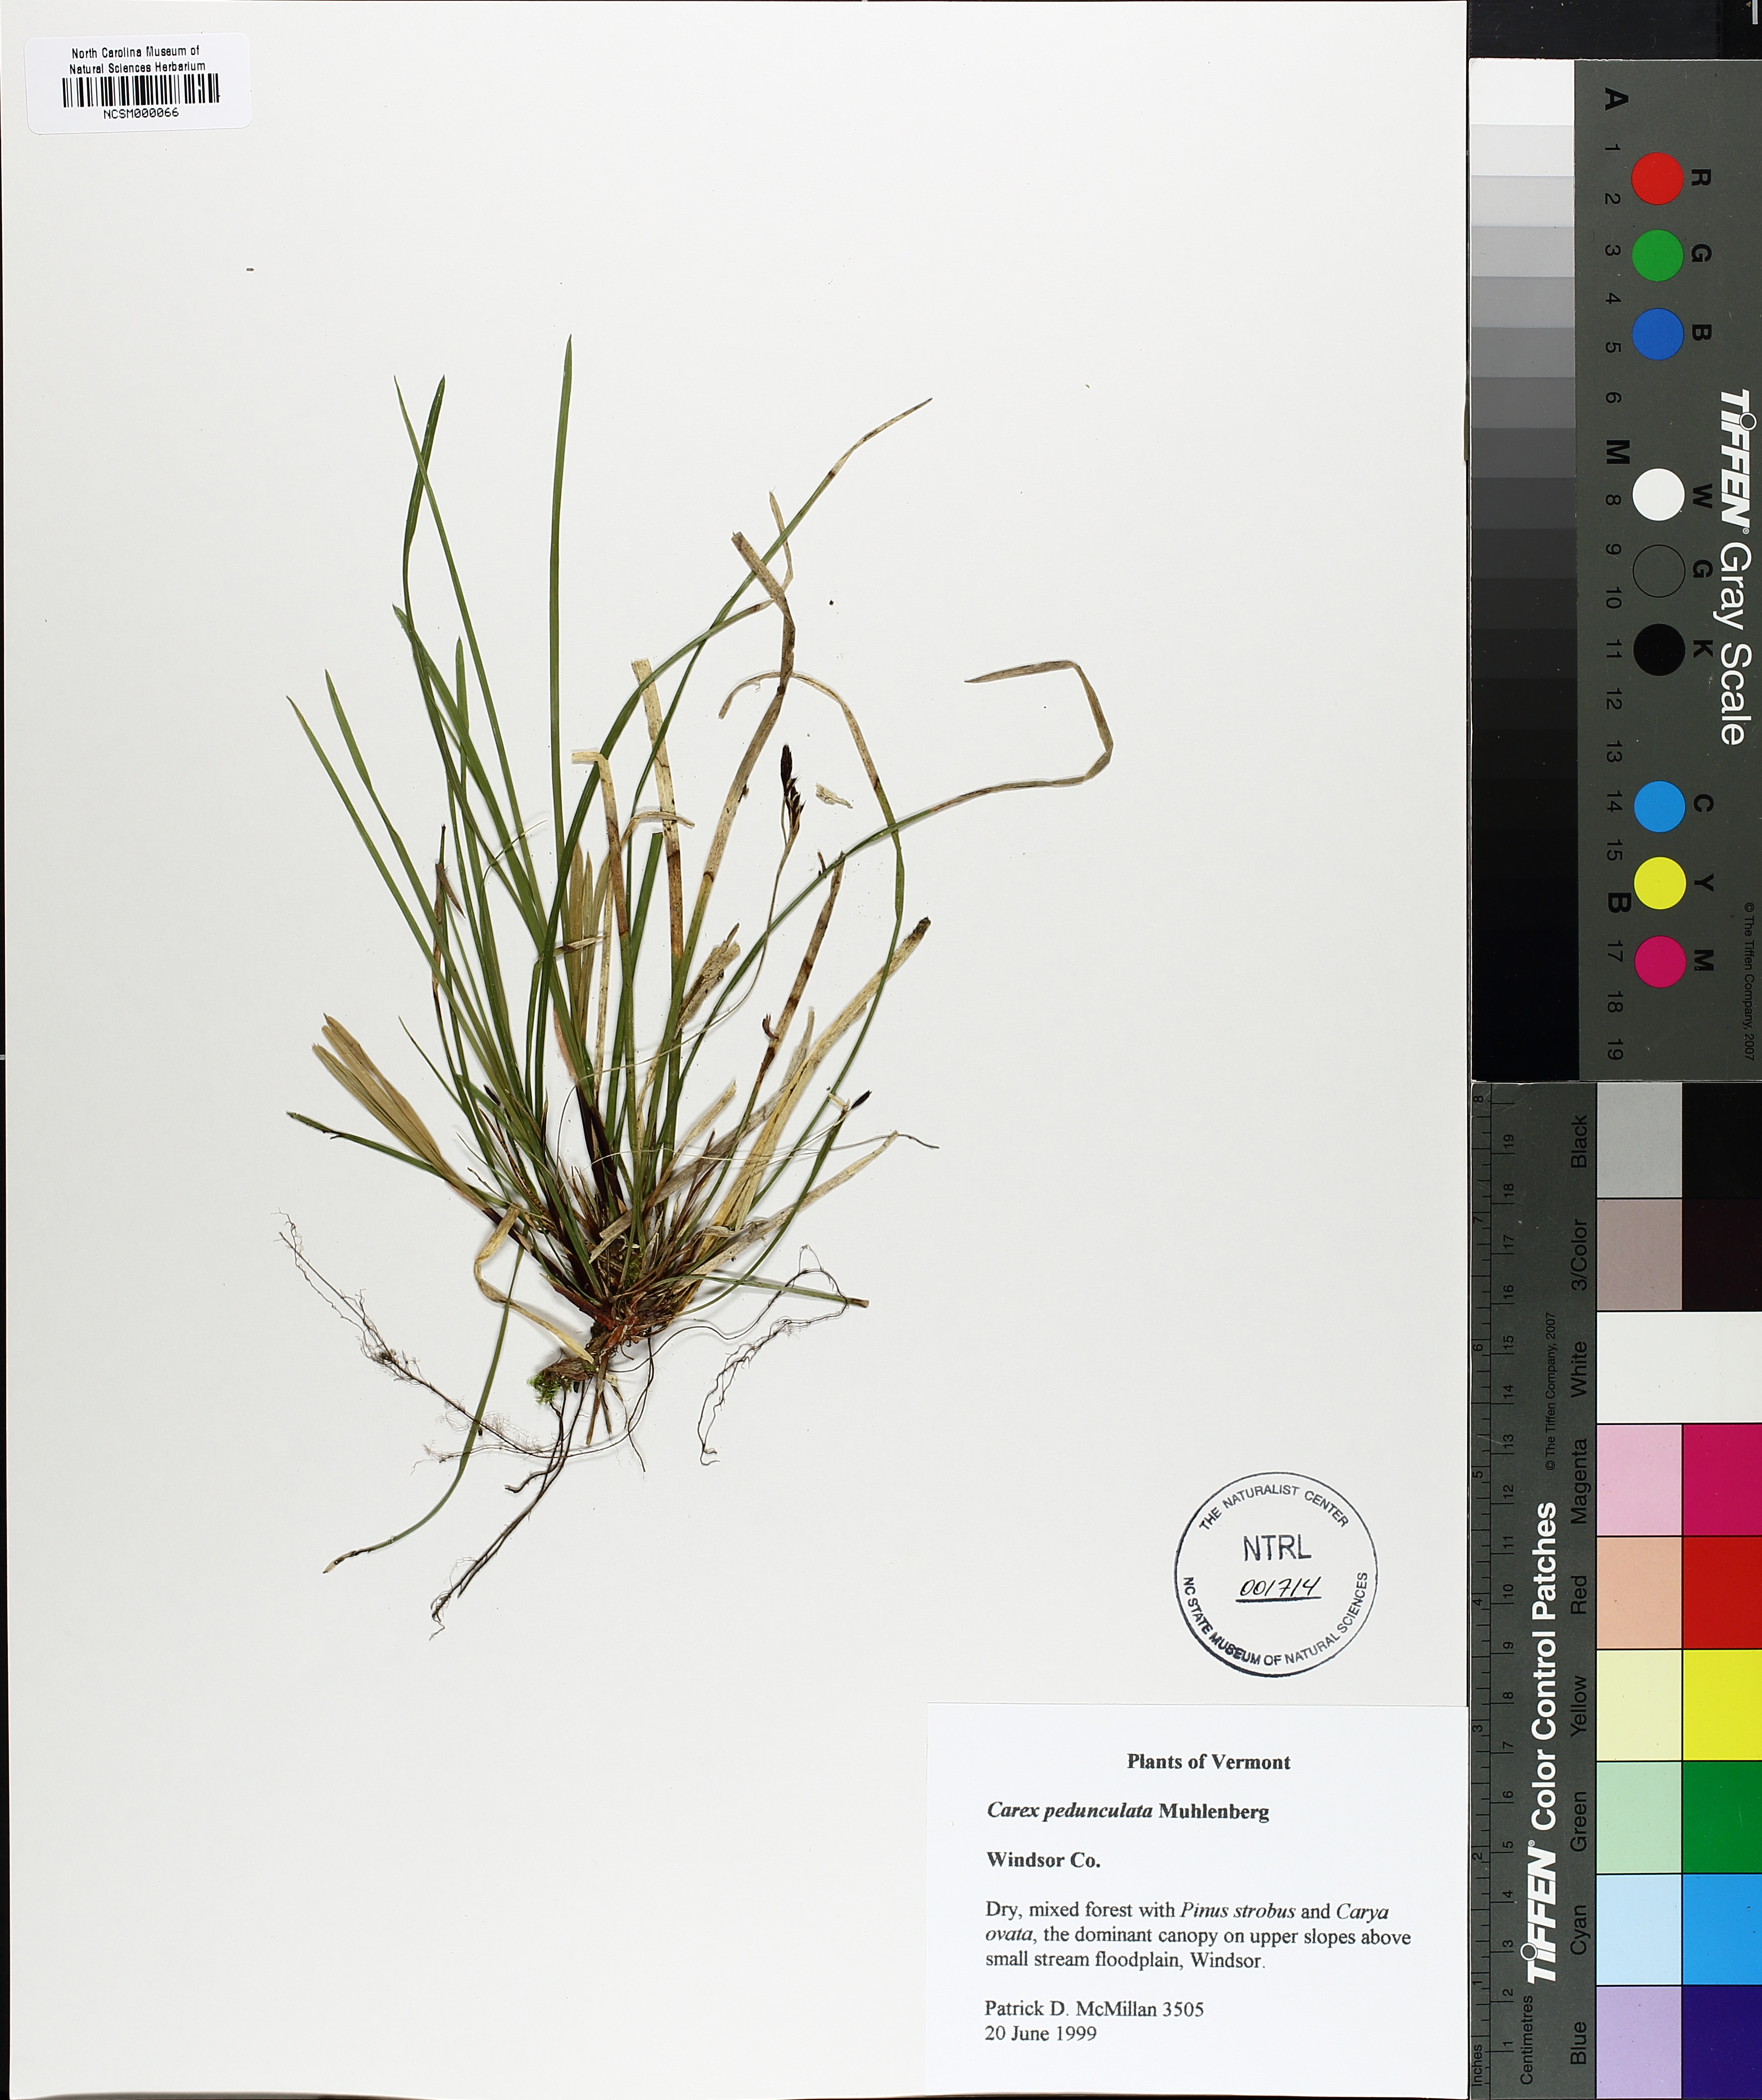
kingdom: Plantae
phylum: Tracheophyta
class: Liliopsida
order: Poales
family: Cyperaceae
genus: Carex
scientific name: Carex pedunculata
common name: Pedunculate sedge
